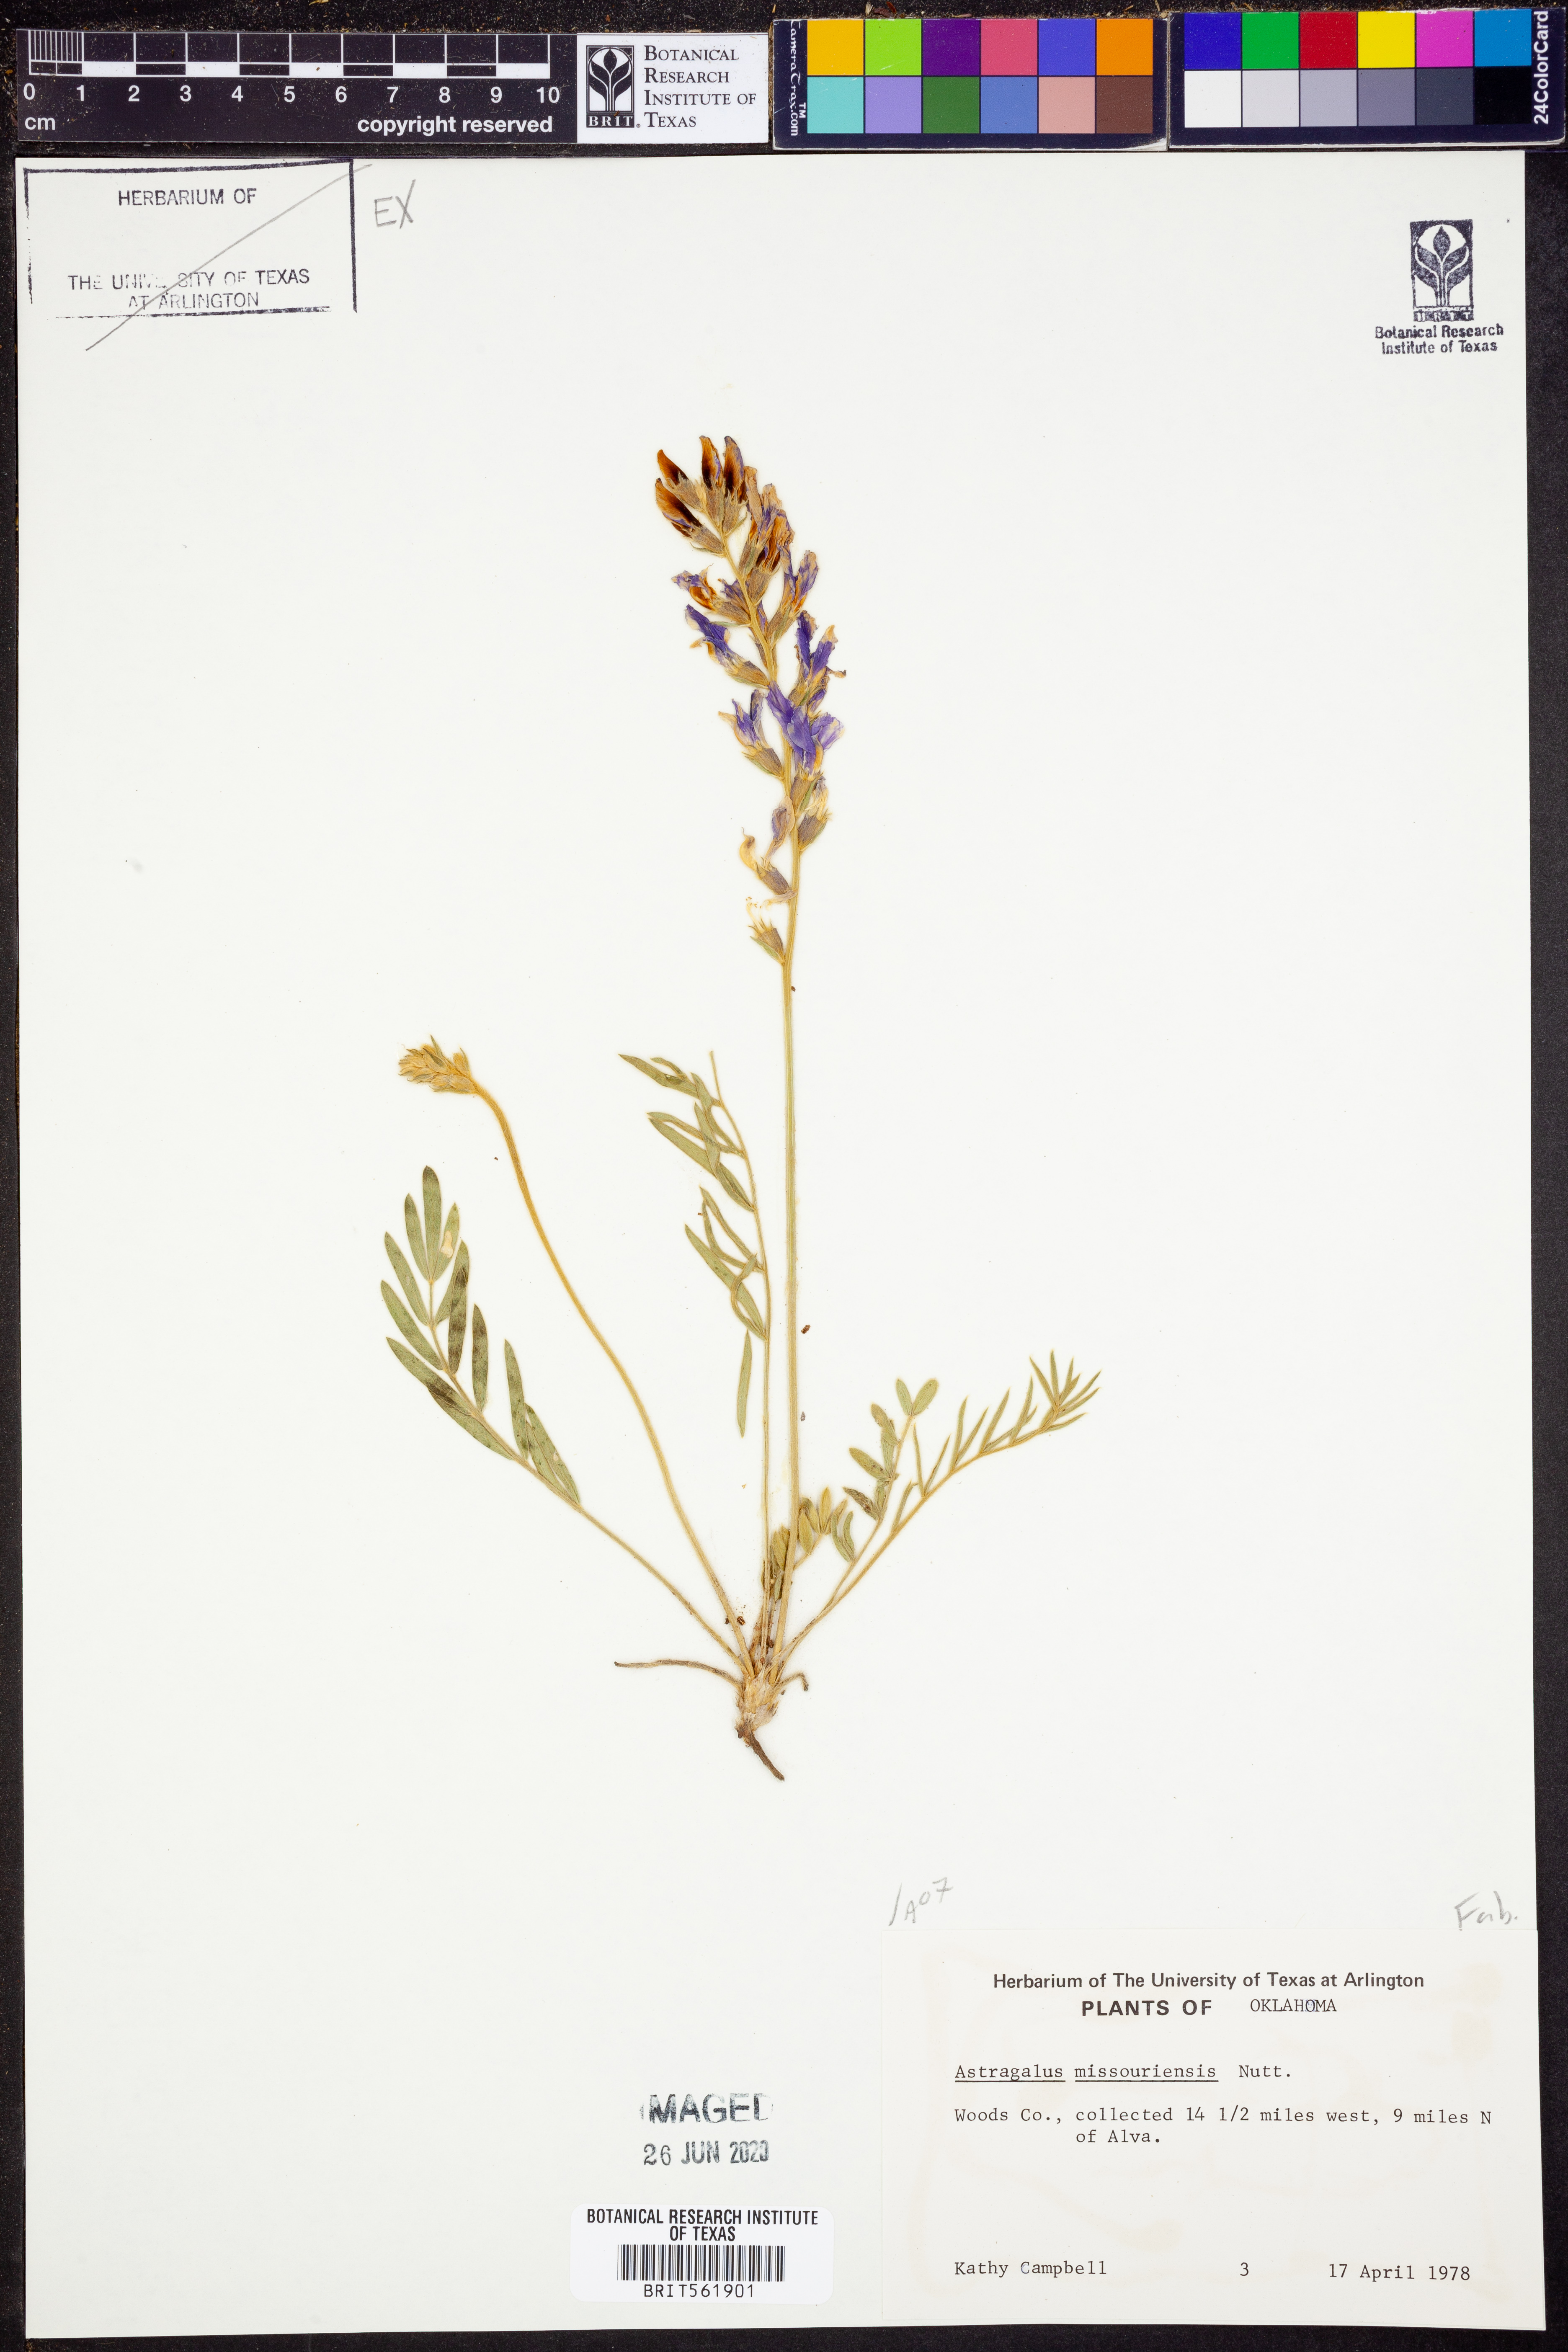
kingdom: Plantae
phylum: Tracheophyta
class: Magnoliopsida
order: Fabales
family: Fabaceae
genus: Astragalus
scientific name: Astragalus missouriensis
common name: Missouri milk-vetch
